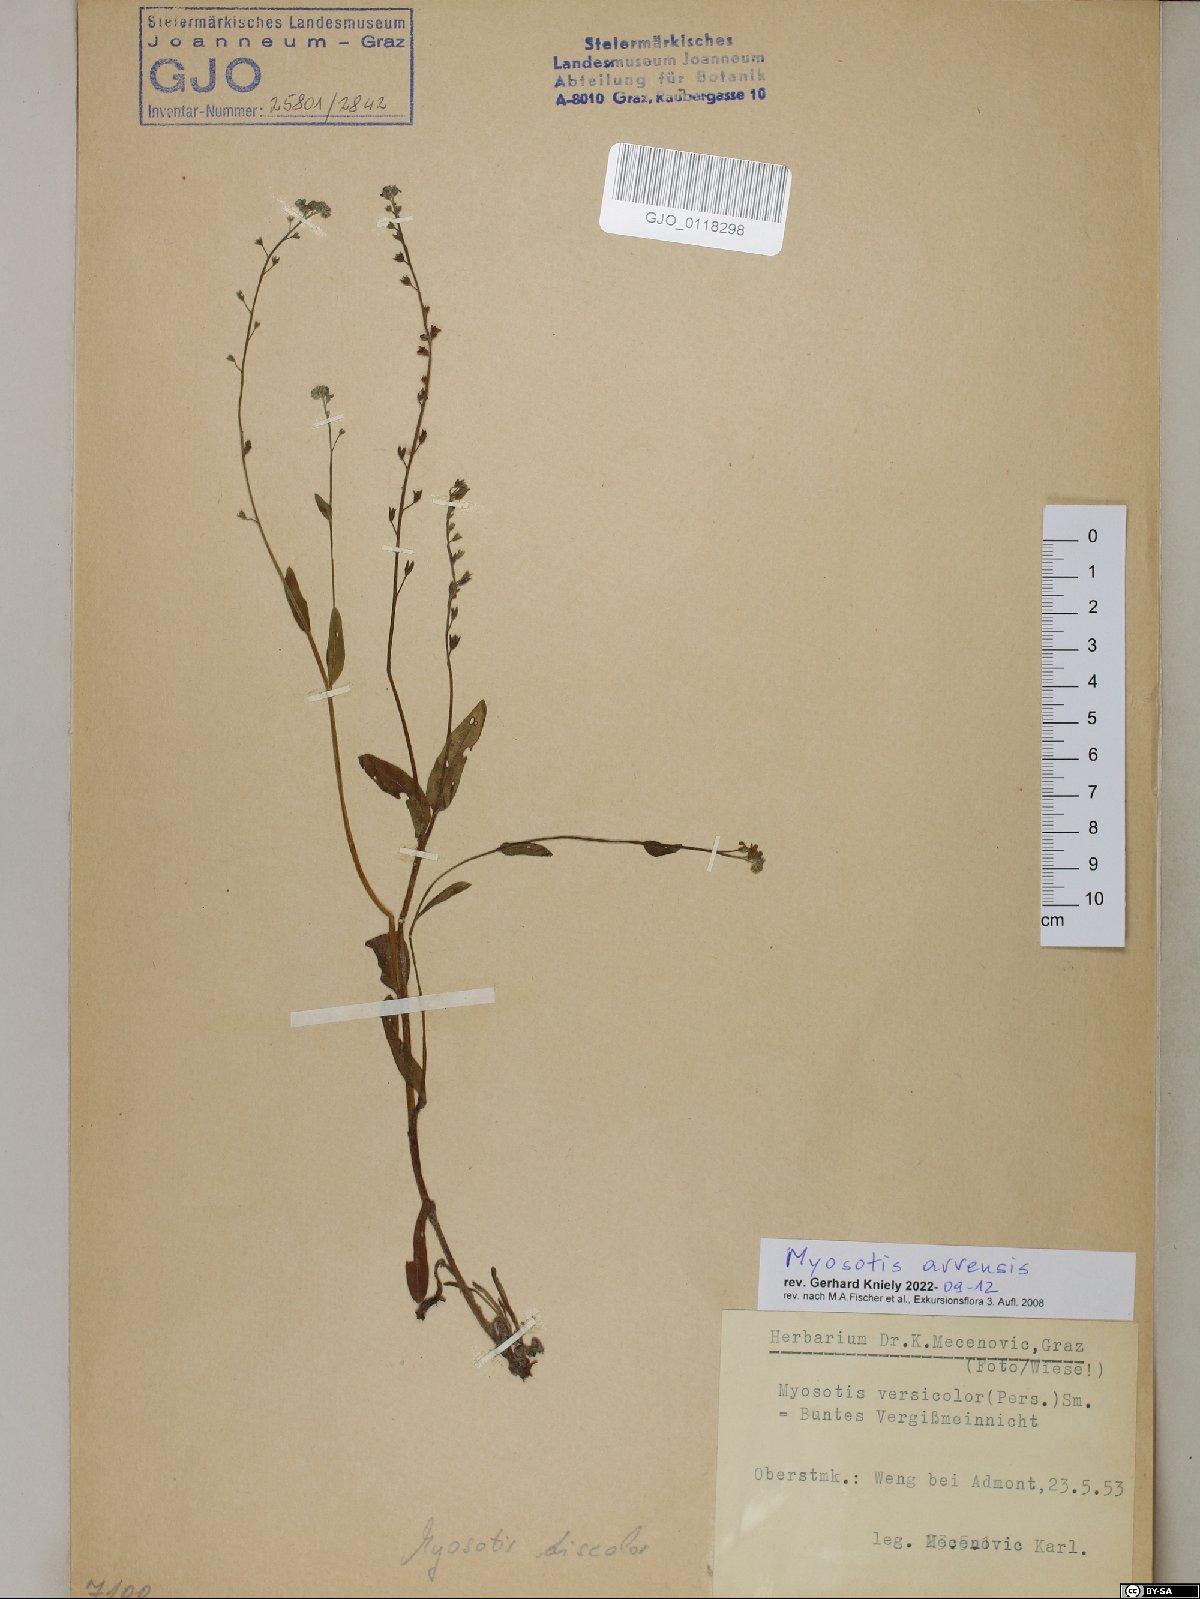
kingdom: Plantae
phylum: Tracheophyta
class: Magnoliopsida
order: Boraginales
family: Boraginaceae
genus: Myosotis
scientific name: Myosotis arvensis
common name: Field forget-me-not
